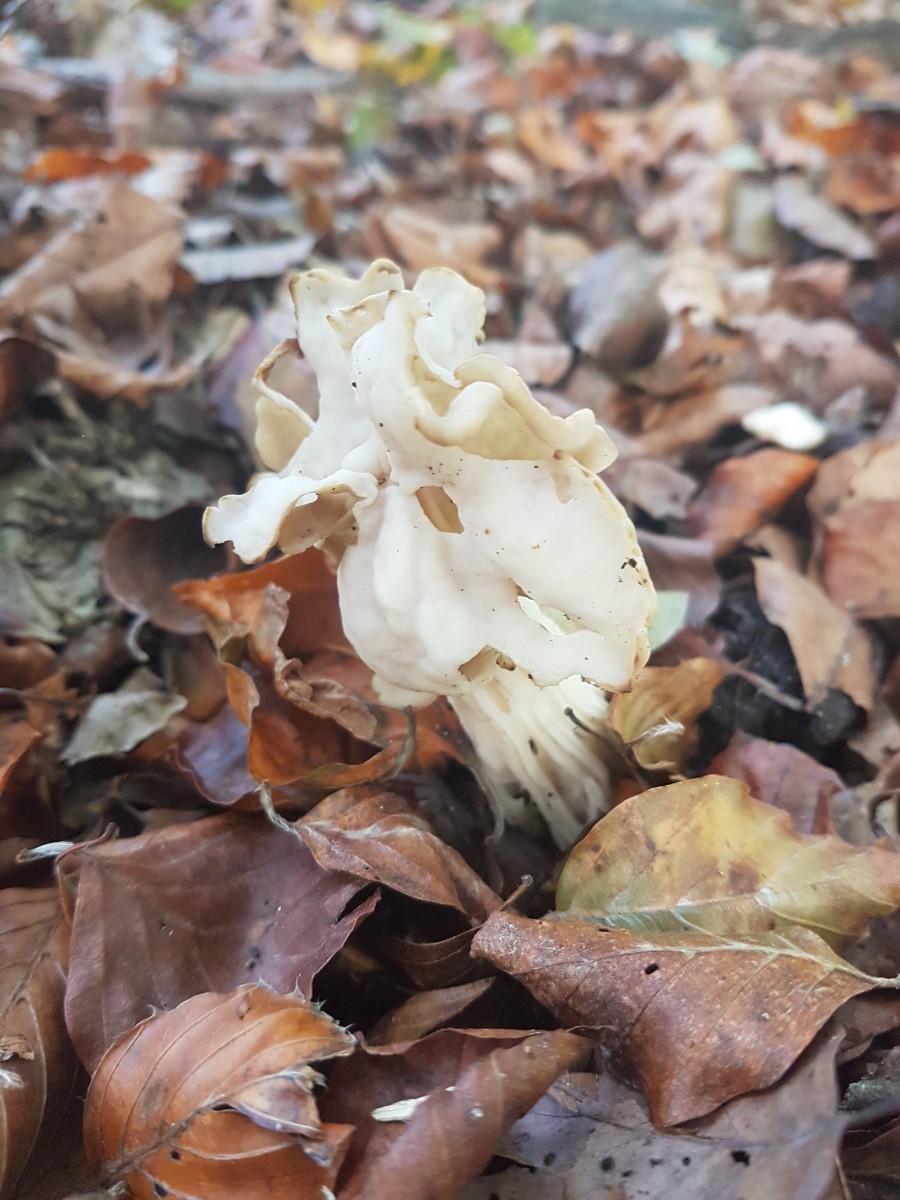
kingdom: Fungi
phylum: Ascomycota
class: Pezizomycetes
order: Pezizales
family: Helvellaceae
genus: Helvella
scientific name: Helvella crispa
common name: kruset foldhat
